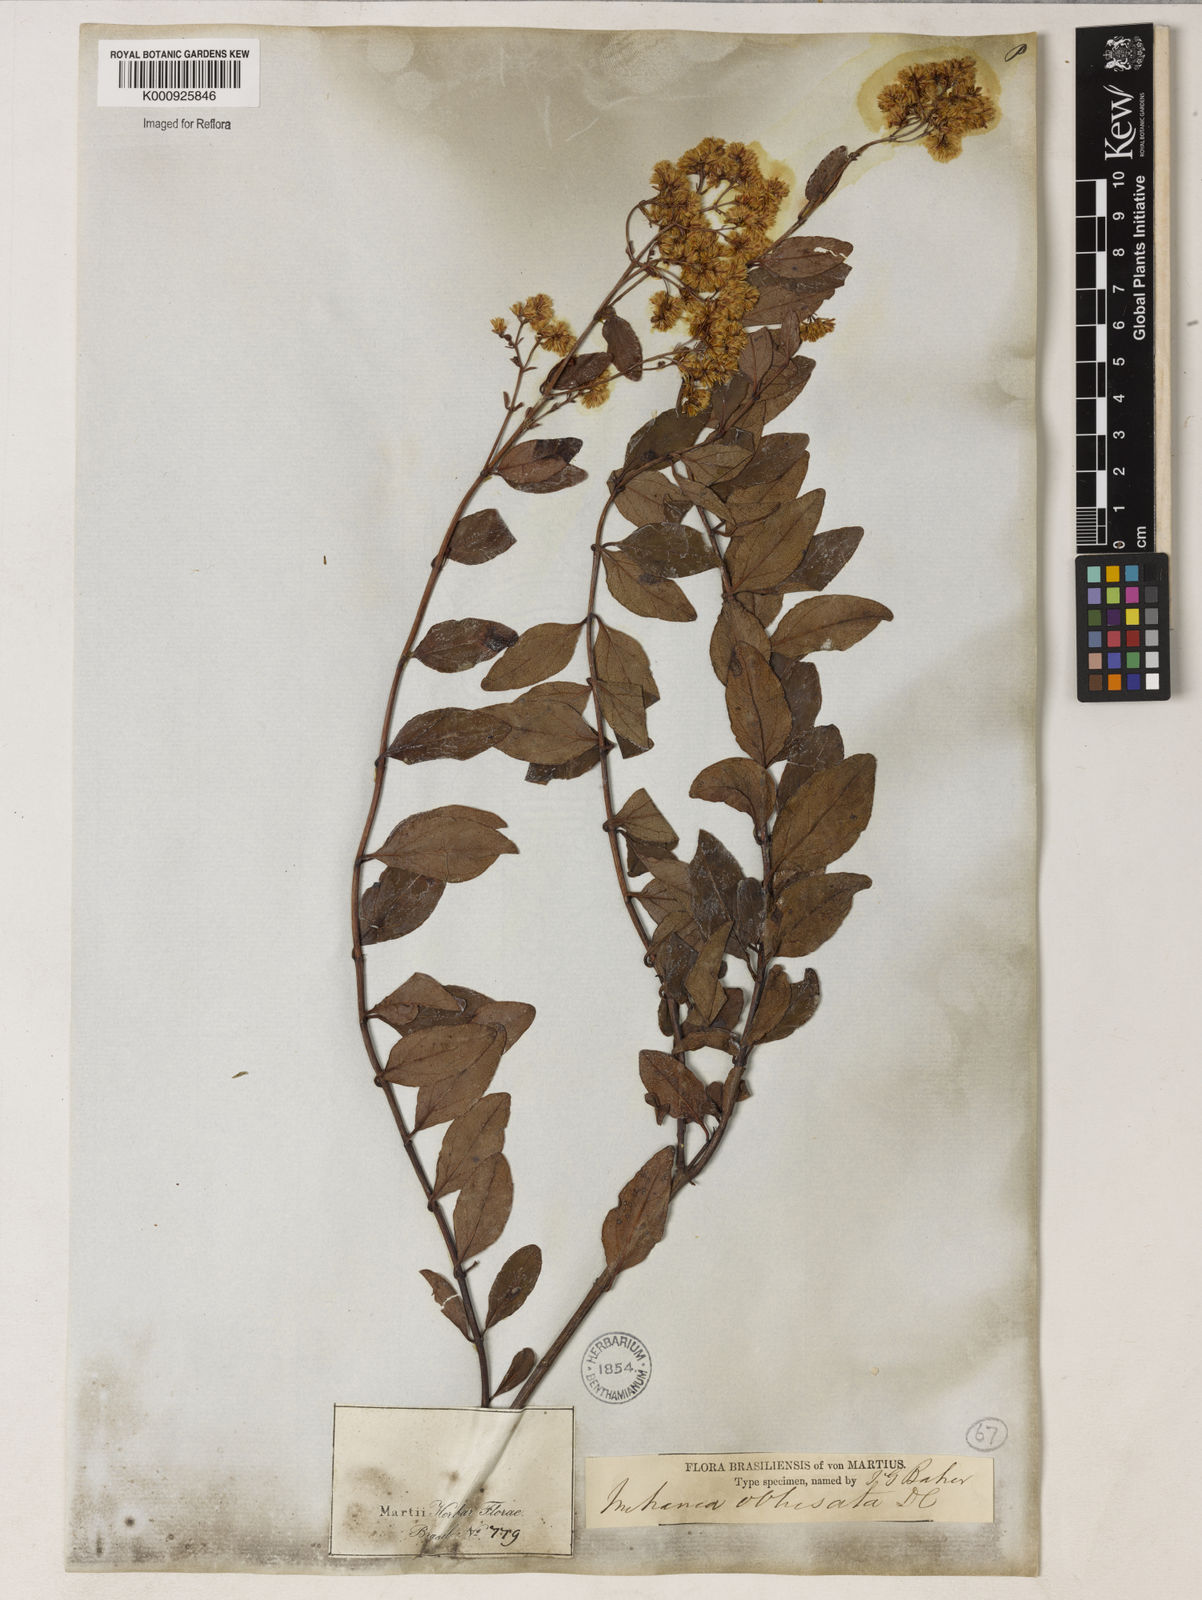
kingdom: Plantae
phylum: Tracheophyta
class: Magnoliopsida
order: Asterales
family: Asteraceae
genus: Mikania
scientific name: Mikania obtusata
